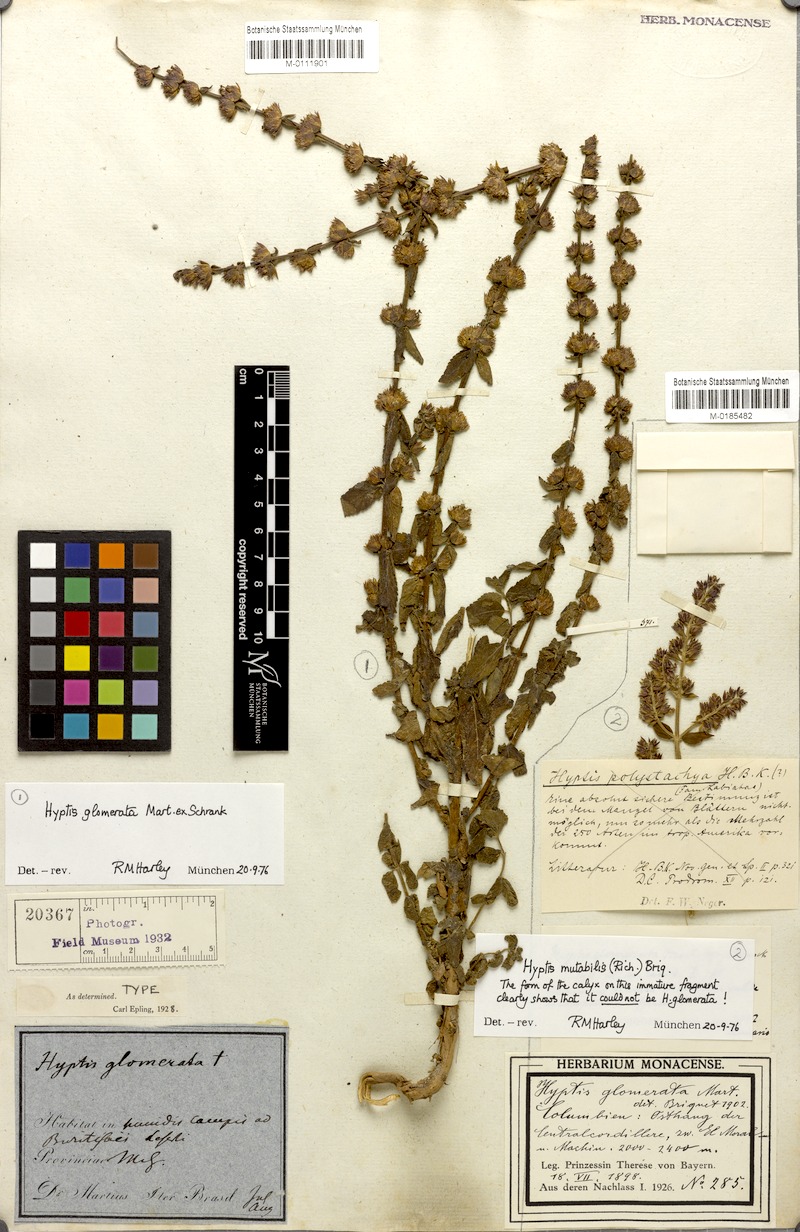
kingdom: Plantae
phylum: Tracheophyta
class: Magnoliopsida
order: Lamiales
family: Lamiaceae
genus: Oocephalus
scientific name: Oocephalus oppositiflorus
